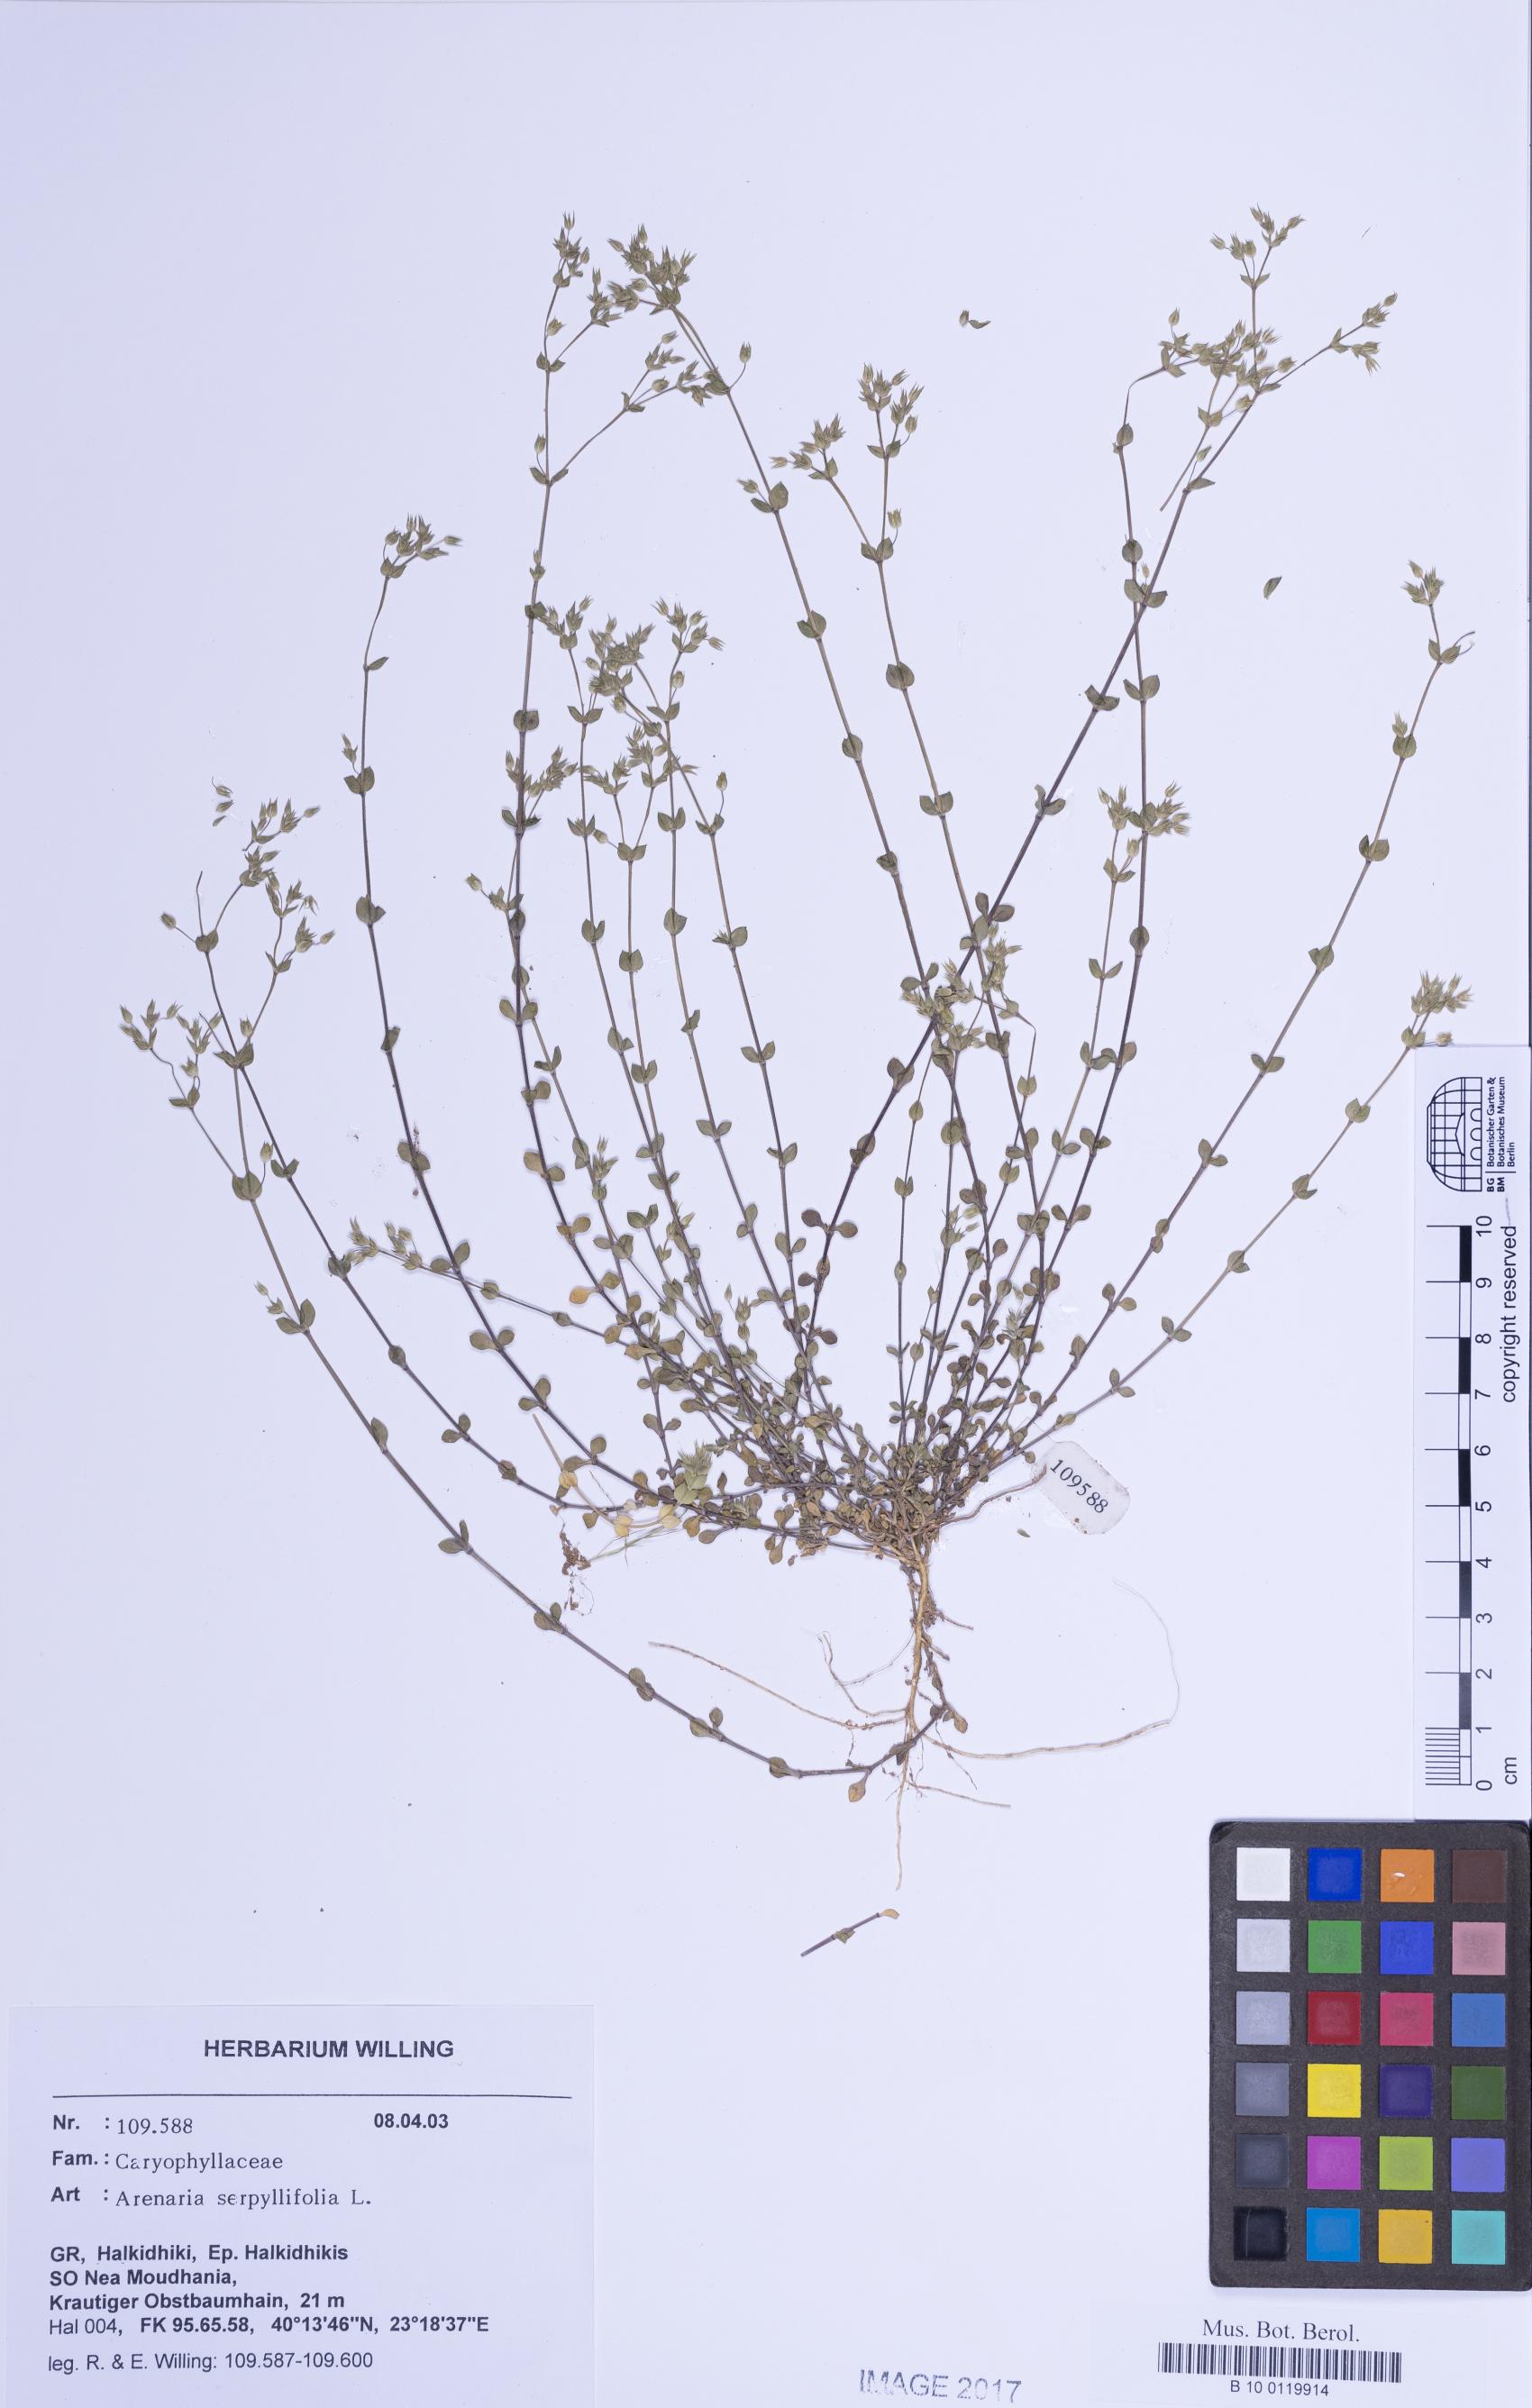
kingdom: Plantae
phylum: Tracheophyta
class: Magnoliopsida
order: Caryophyllales
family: Caryophyllaceae
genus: Arenaria
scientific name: Arenaria serpyllifolia
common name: Thyme-leaved sandwort
